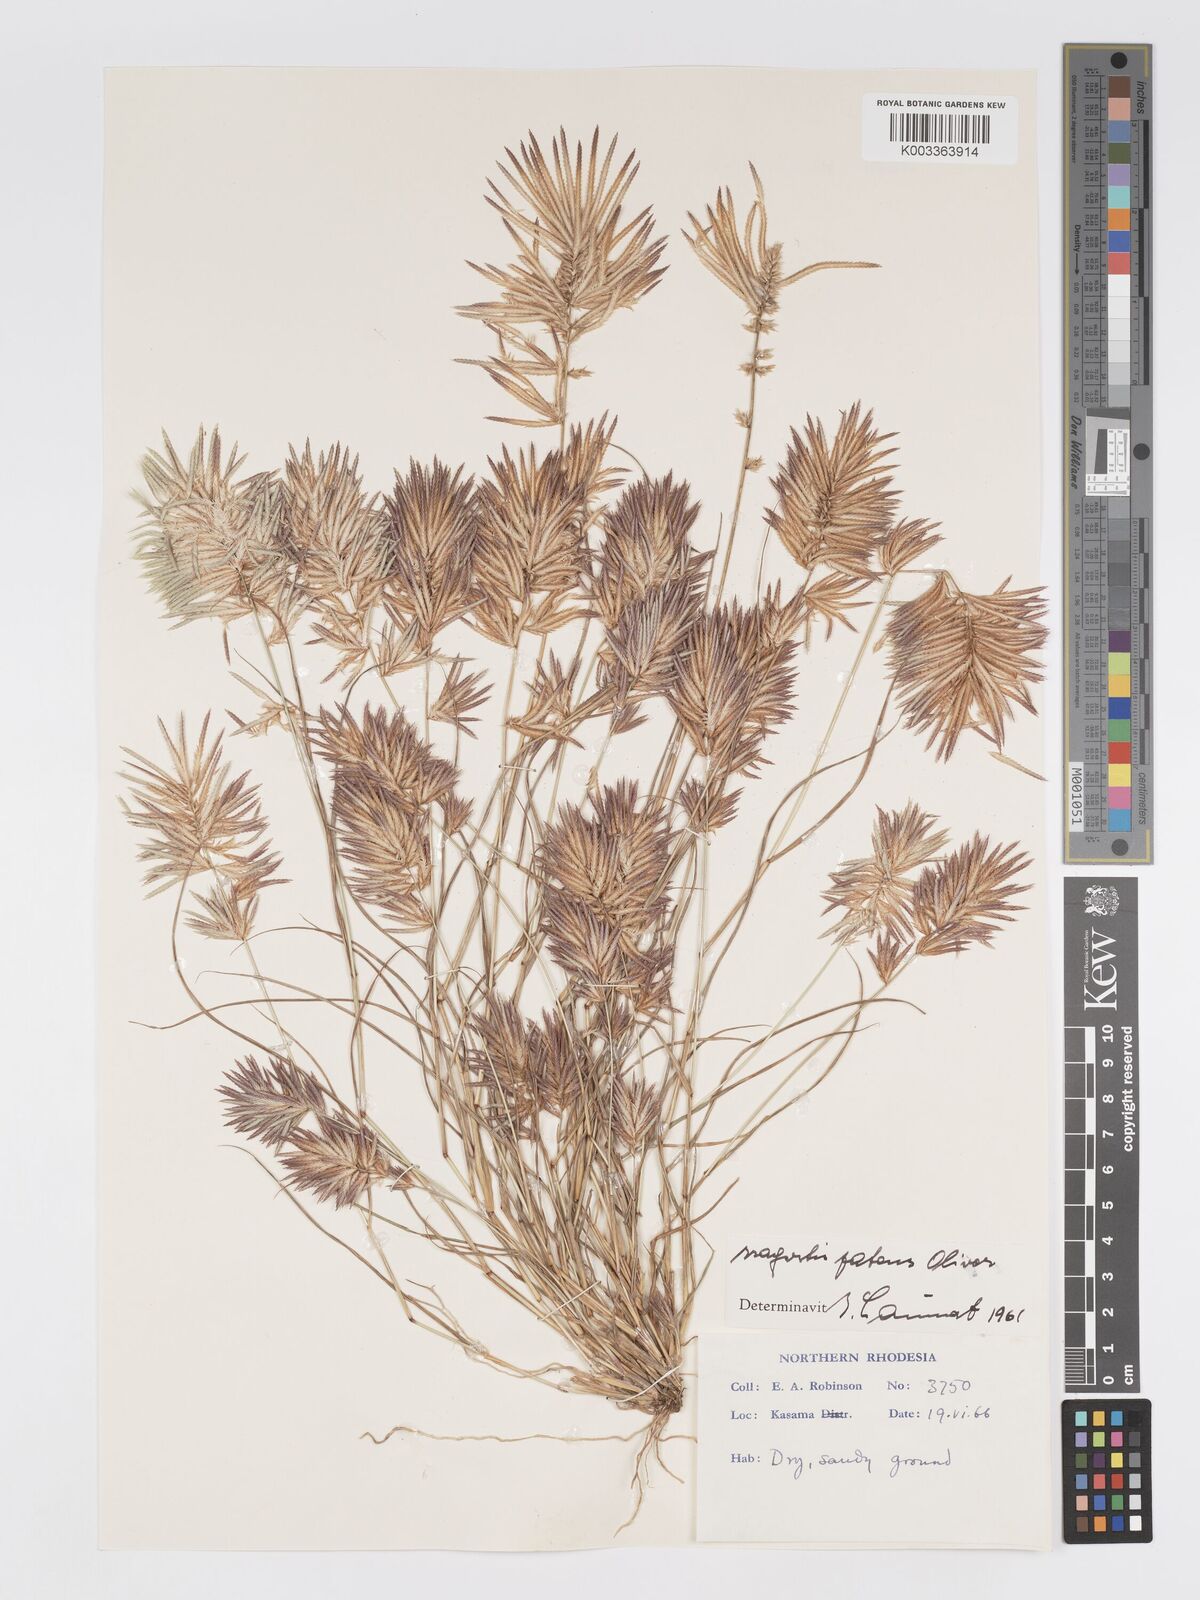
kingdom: Plantae
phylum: Tracheophyta
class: Liliopsida
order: Poales
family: Poaceae
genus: Eragrostis
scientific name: Eragrostis patens
